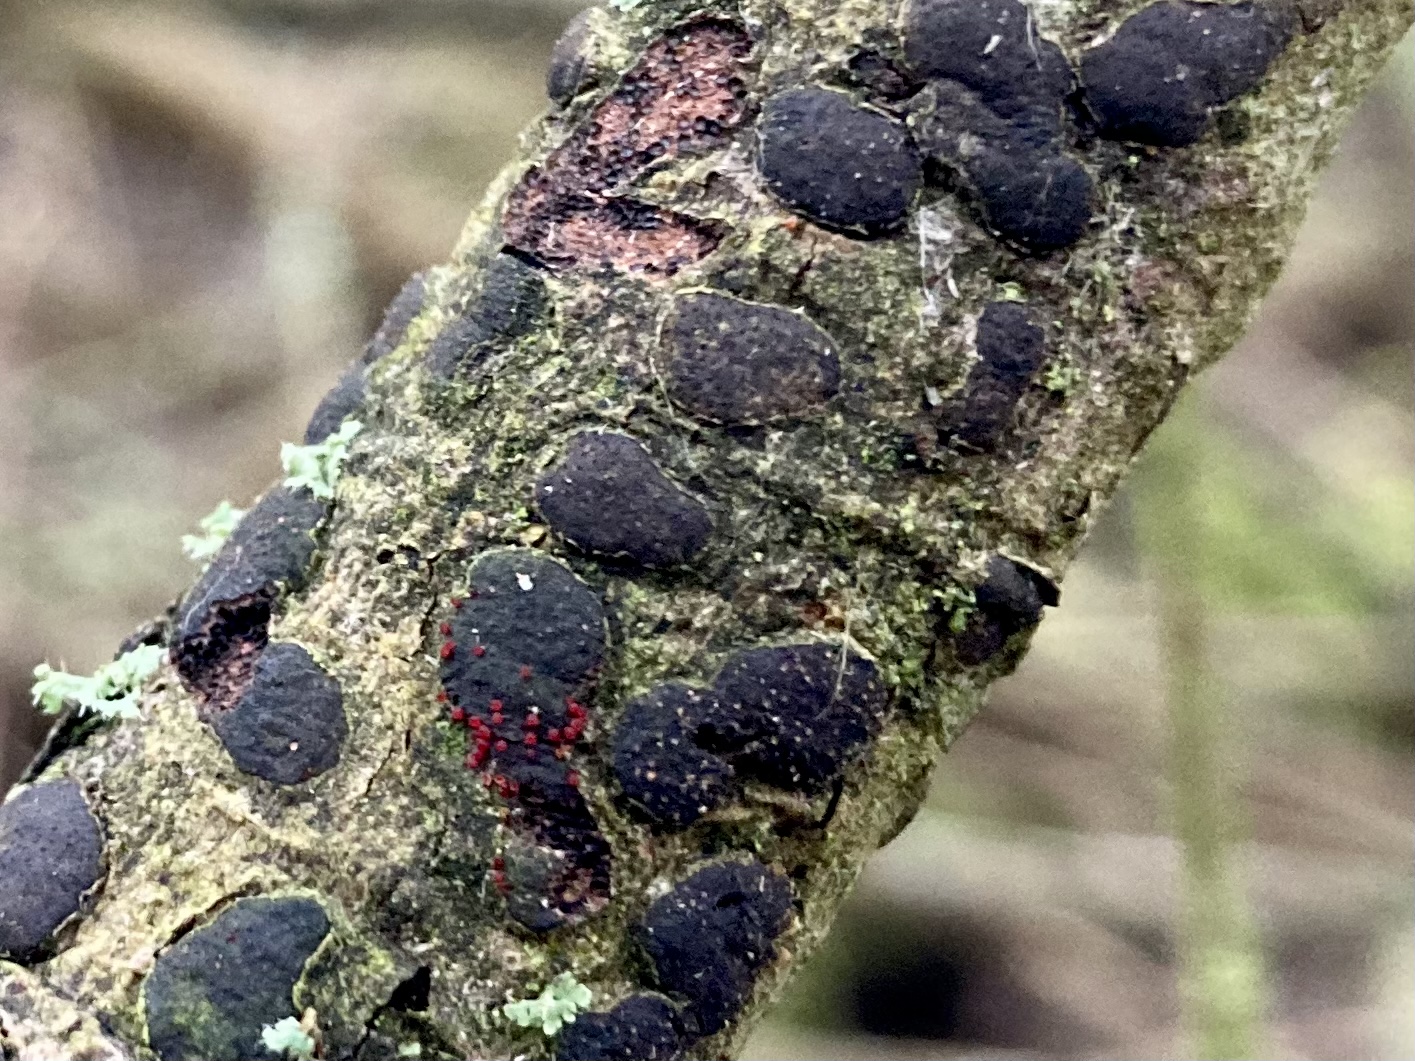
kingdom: Fungi
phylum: Ascomycota
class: Sordariomycetes
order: Hypocreales
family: Nectriaceae
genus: Dialonectria
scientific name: Dialonectria diatrypicola
